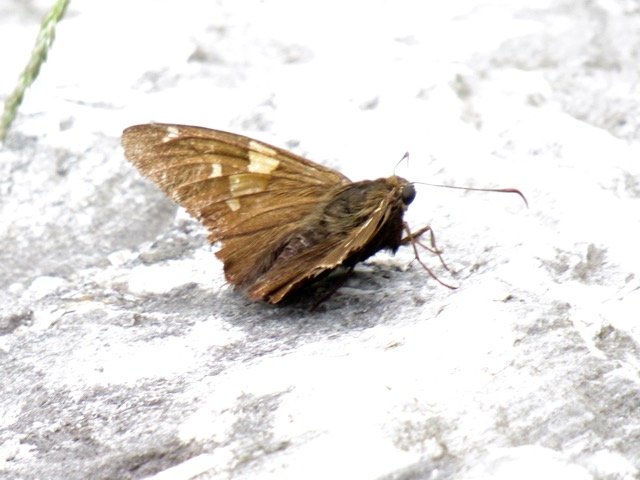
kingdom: Animalia
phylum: Arthropoda
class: Insecta
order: Lepidoptera
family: Hesperiidae
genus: Epargyreus
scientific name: Epargyreus clarus
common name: Silver-spotted Skipper
